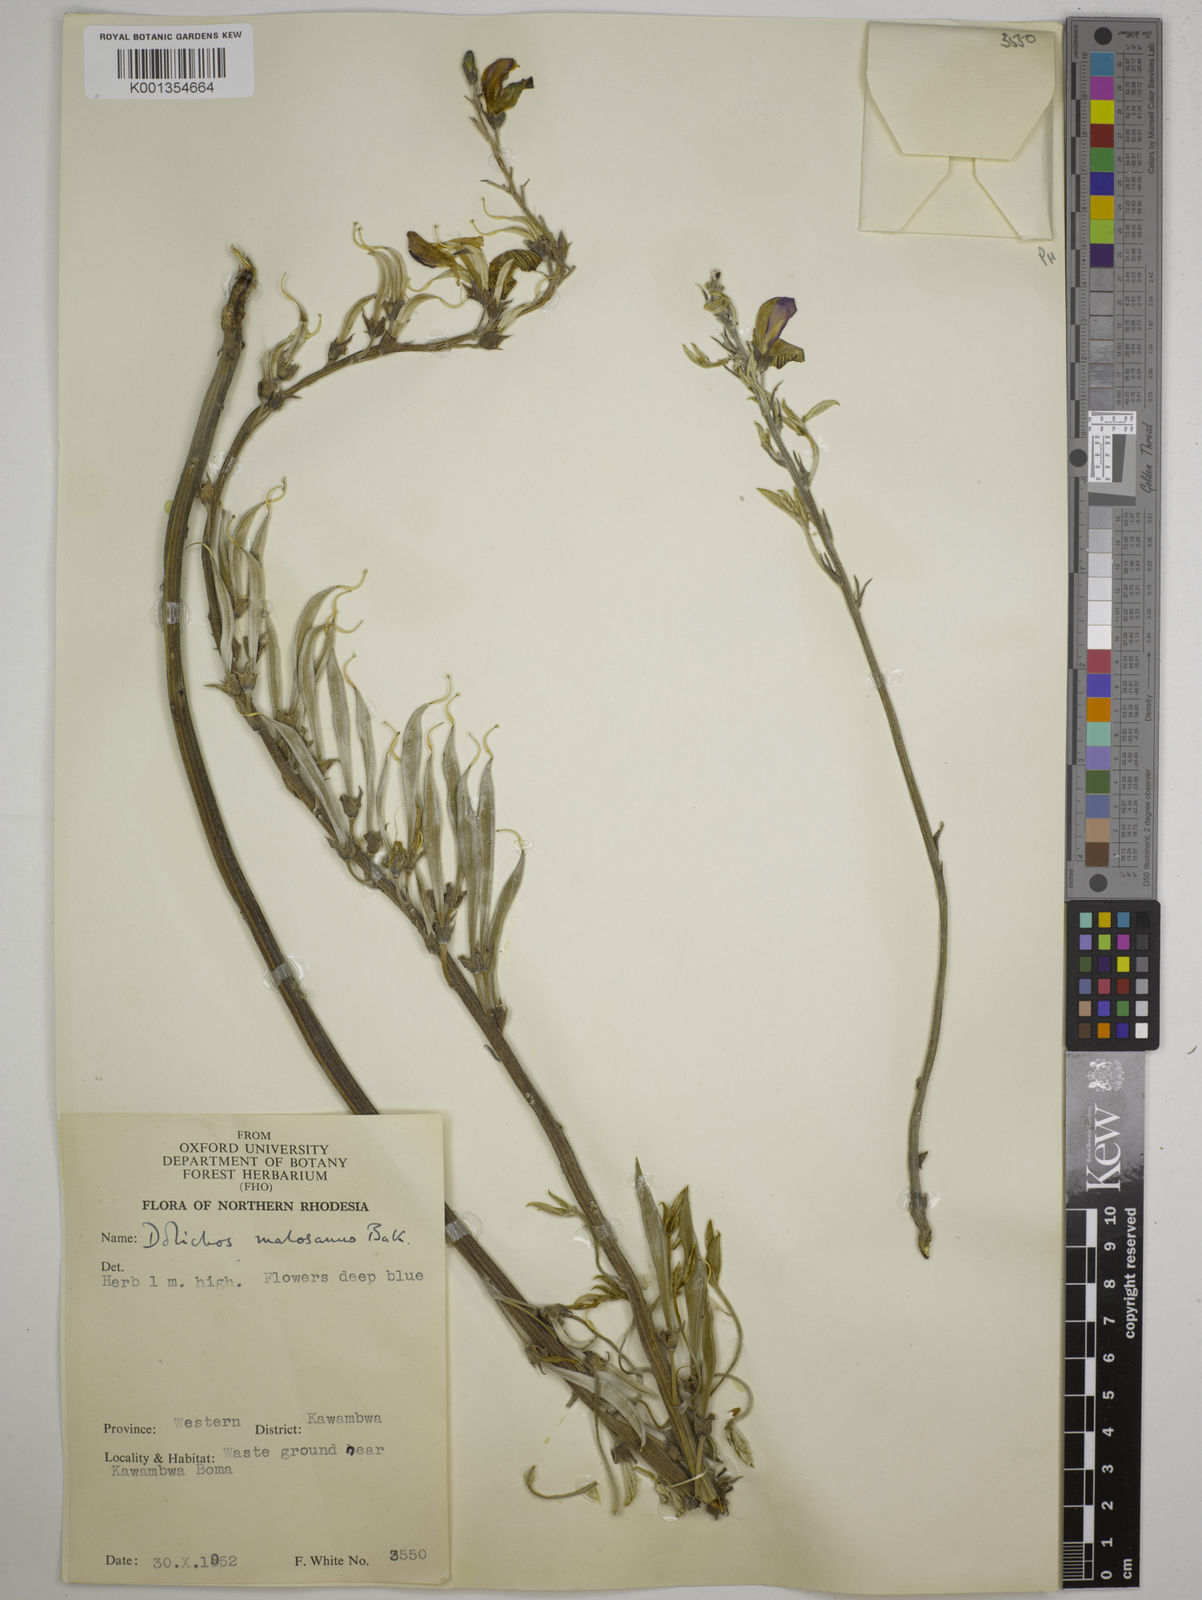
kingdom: Plantae
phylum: Tracheophyta
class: Magnoliopsida
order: Fabales
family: Fabaceae
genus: Dolichos
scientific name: Dolichos kilimandscharicus
